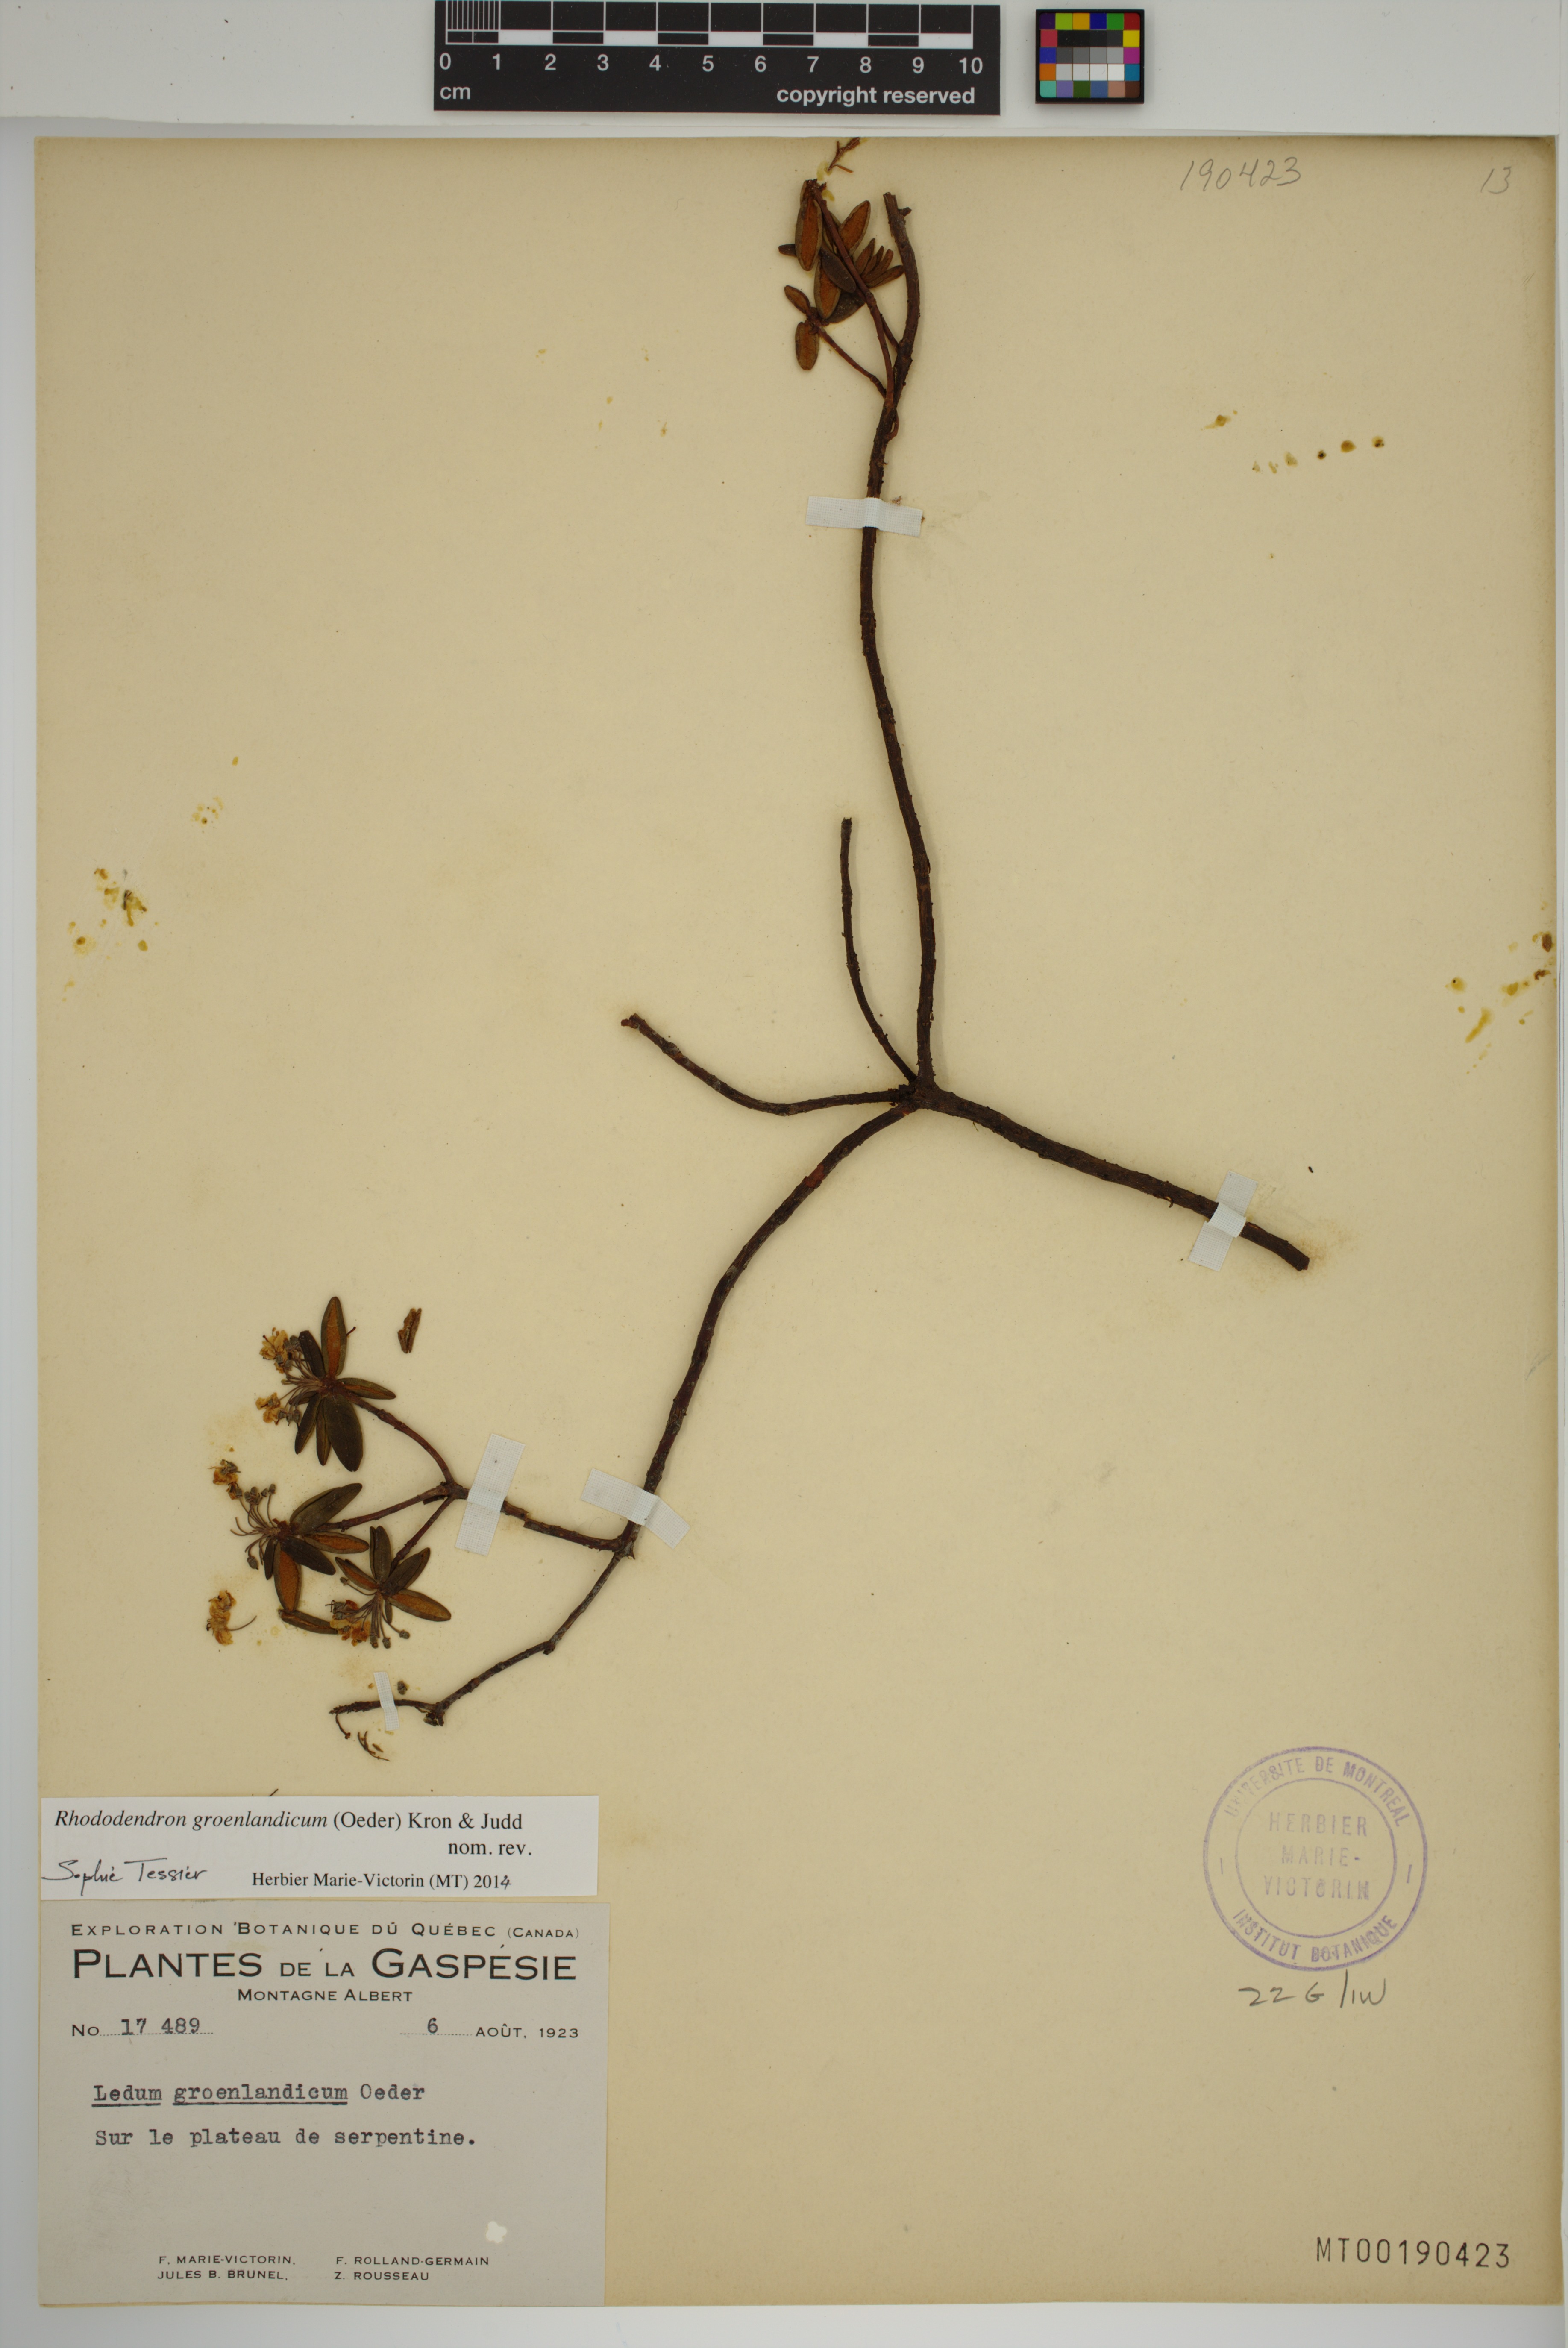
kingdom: Plantae
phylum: Tracheophyta
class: Magnoliopsida
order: Ericales
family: Ericaceae
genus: Rhododendron
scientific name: Rhododendron groenlandicum
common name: Bog labrador tea
